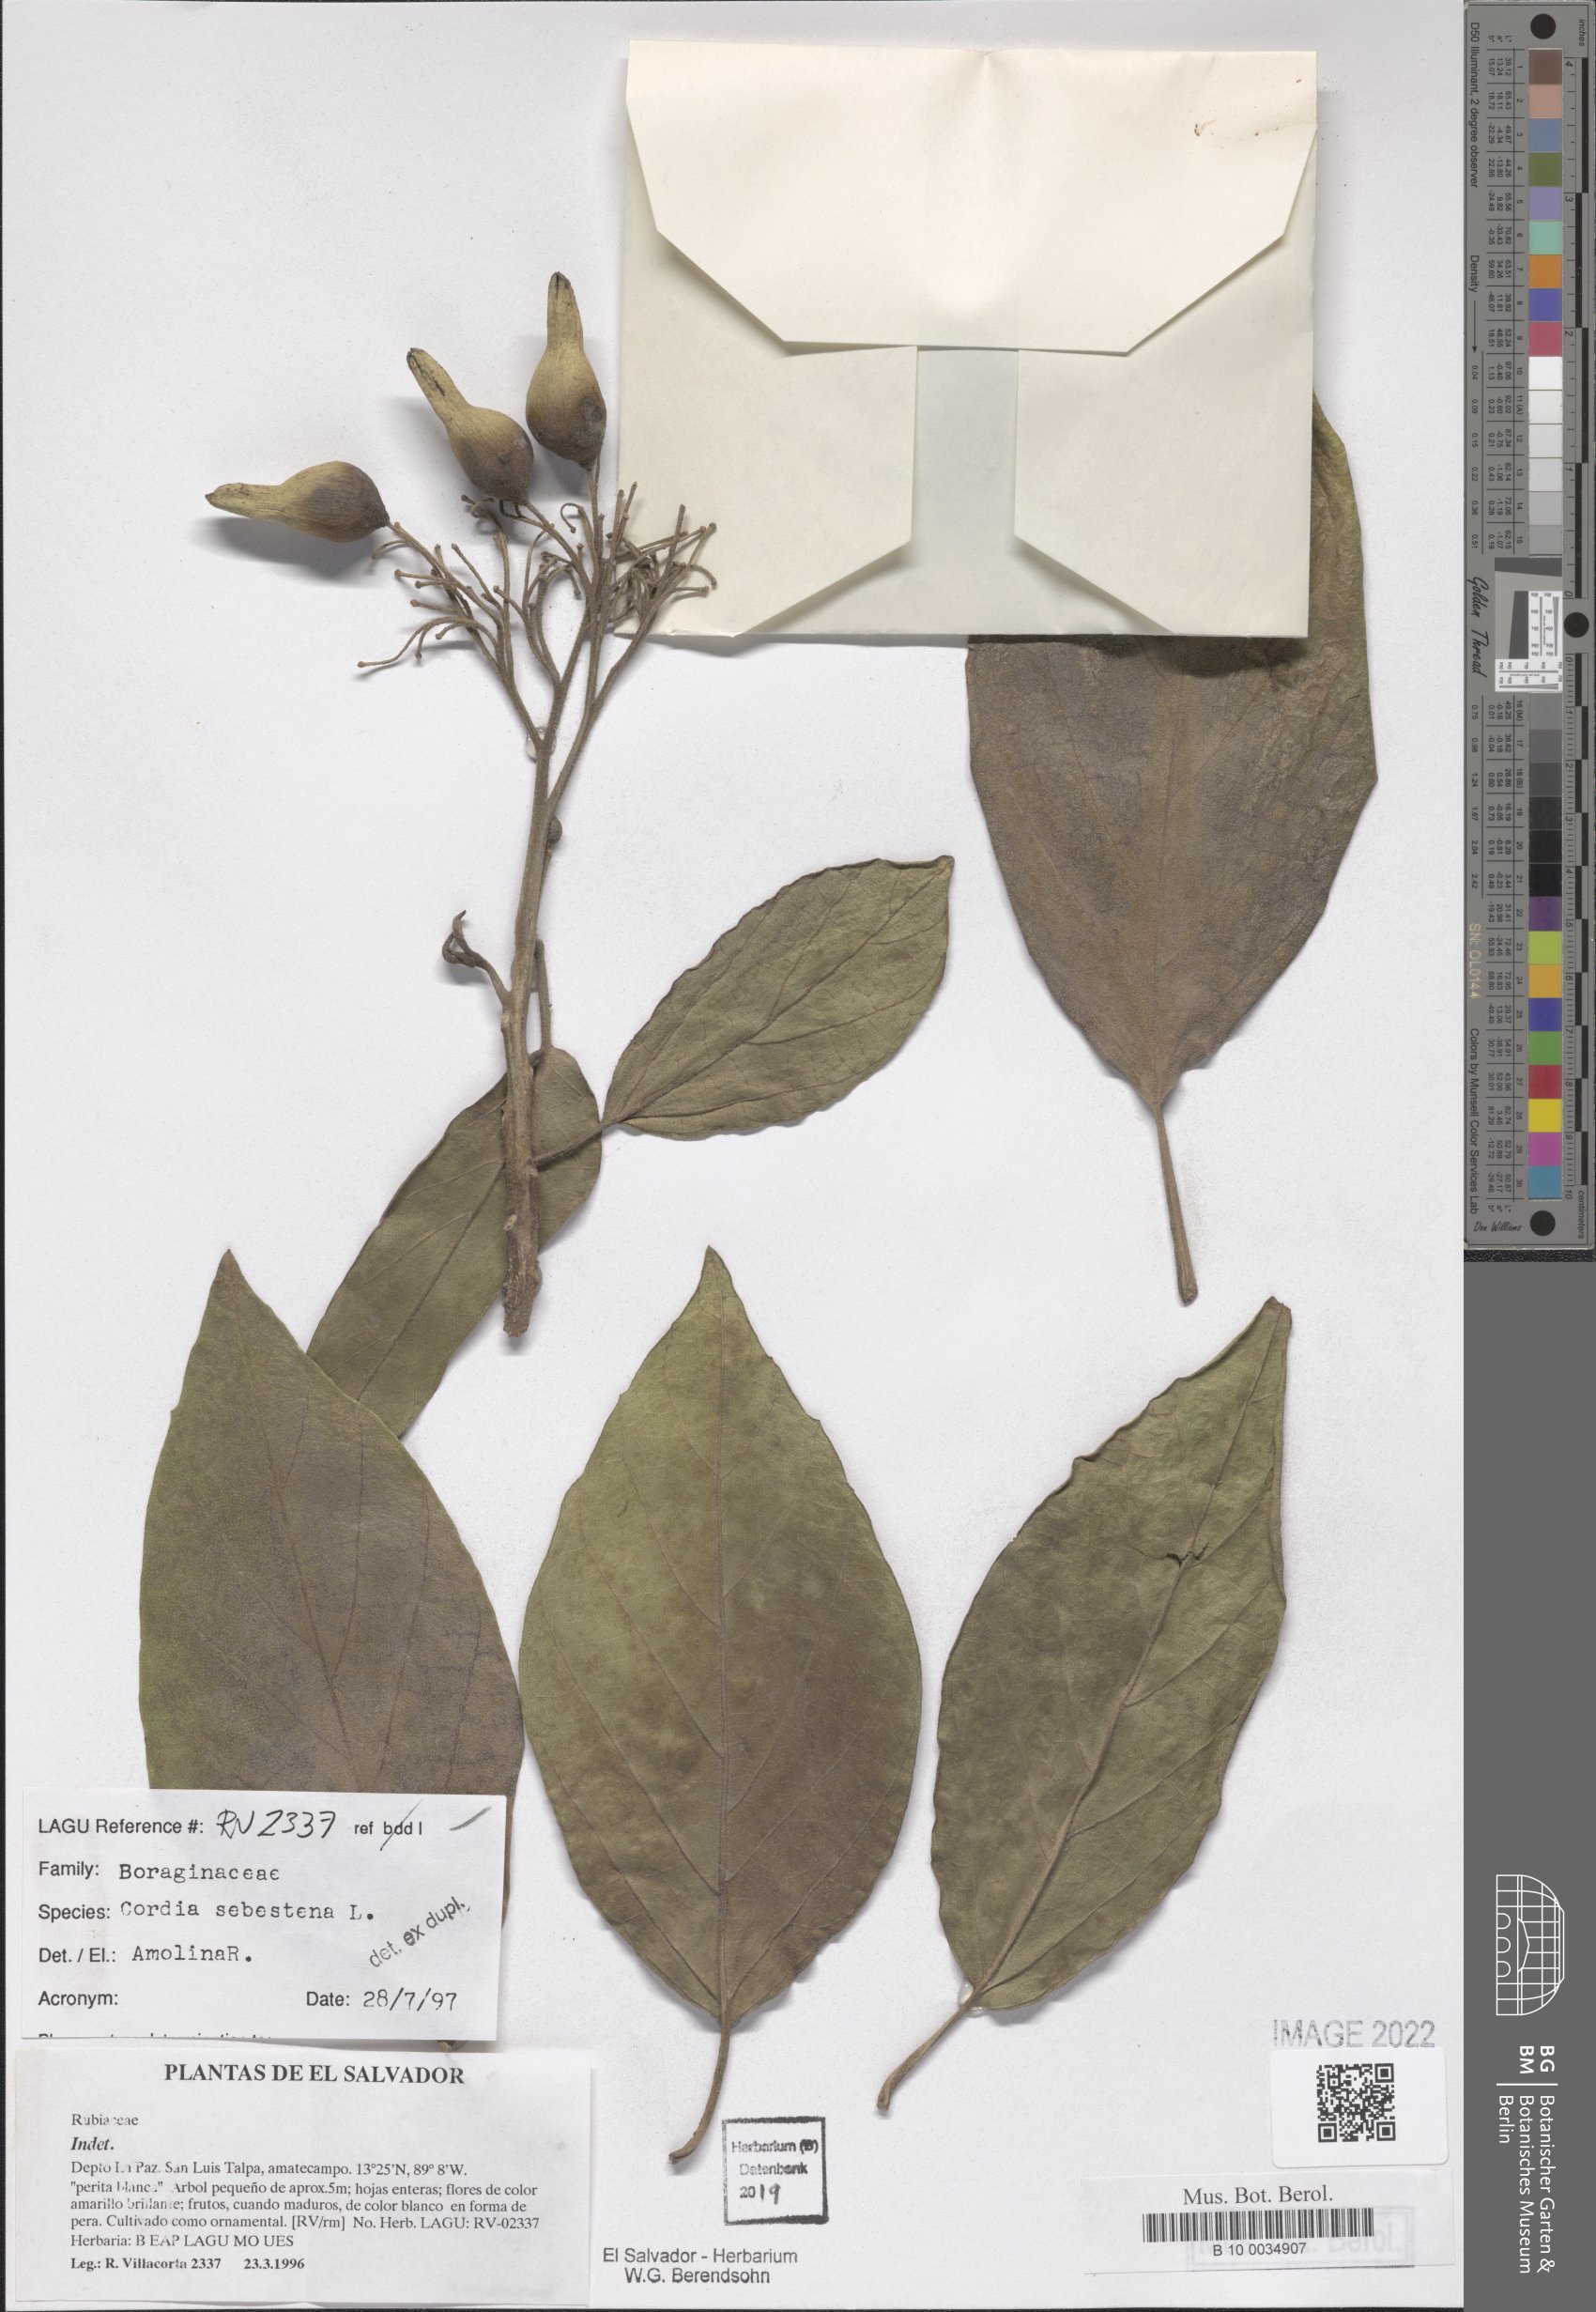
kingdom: Plantae
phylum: Tracheophyta
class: Magnoliopsida
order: Boraginales
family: Cordiaceae
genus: Cordia
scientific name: Cordia sebestena
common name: Largeleaf geigertree
